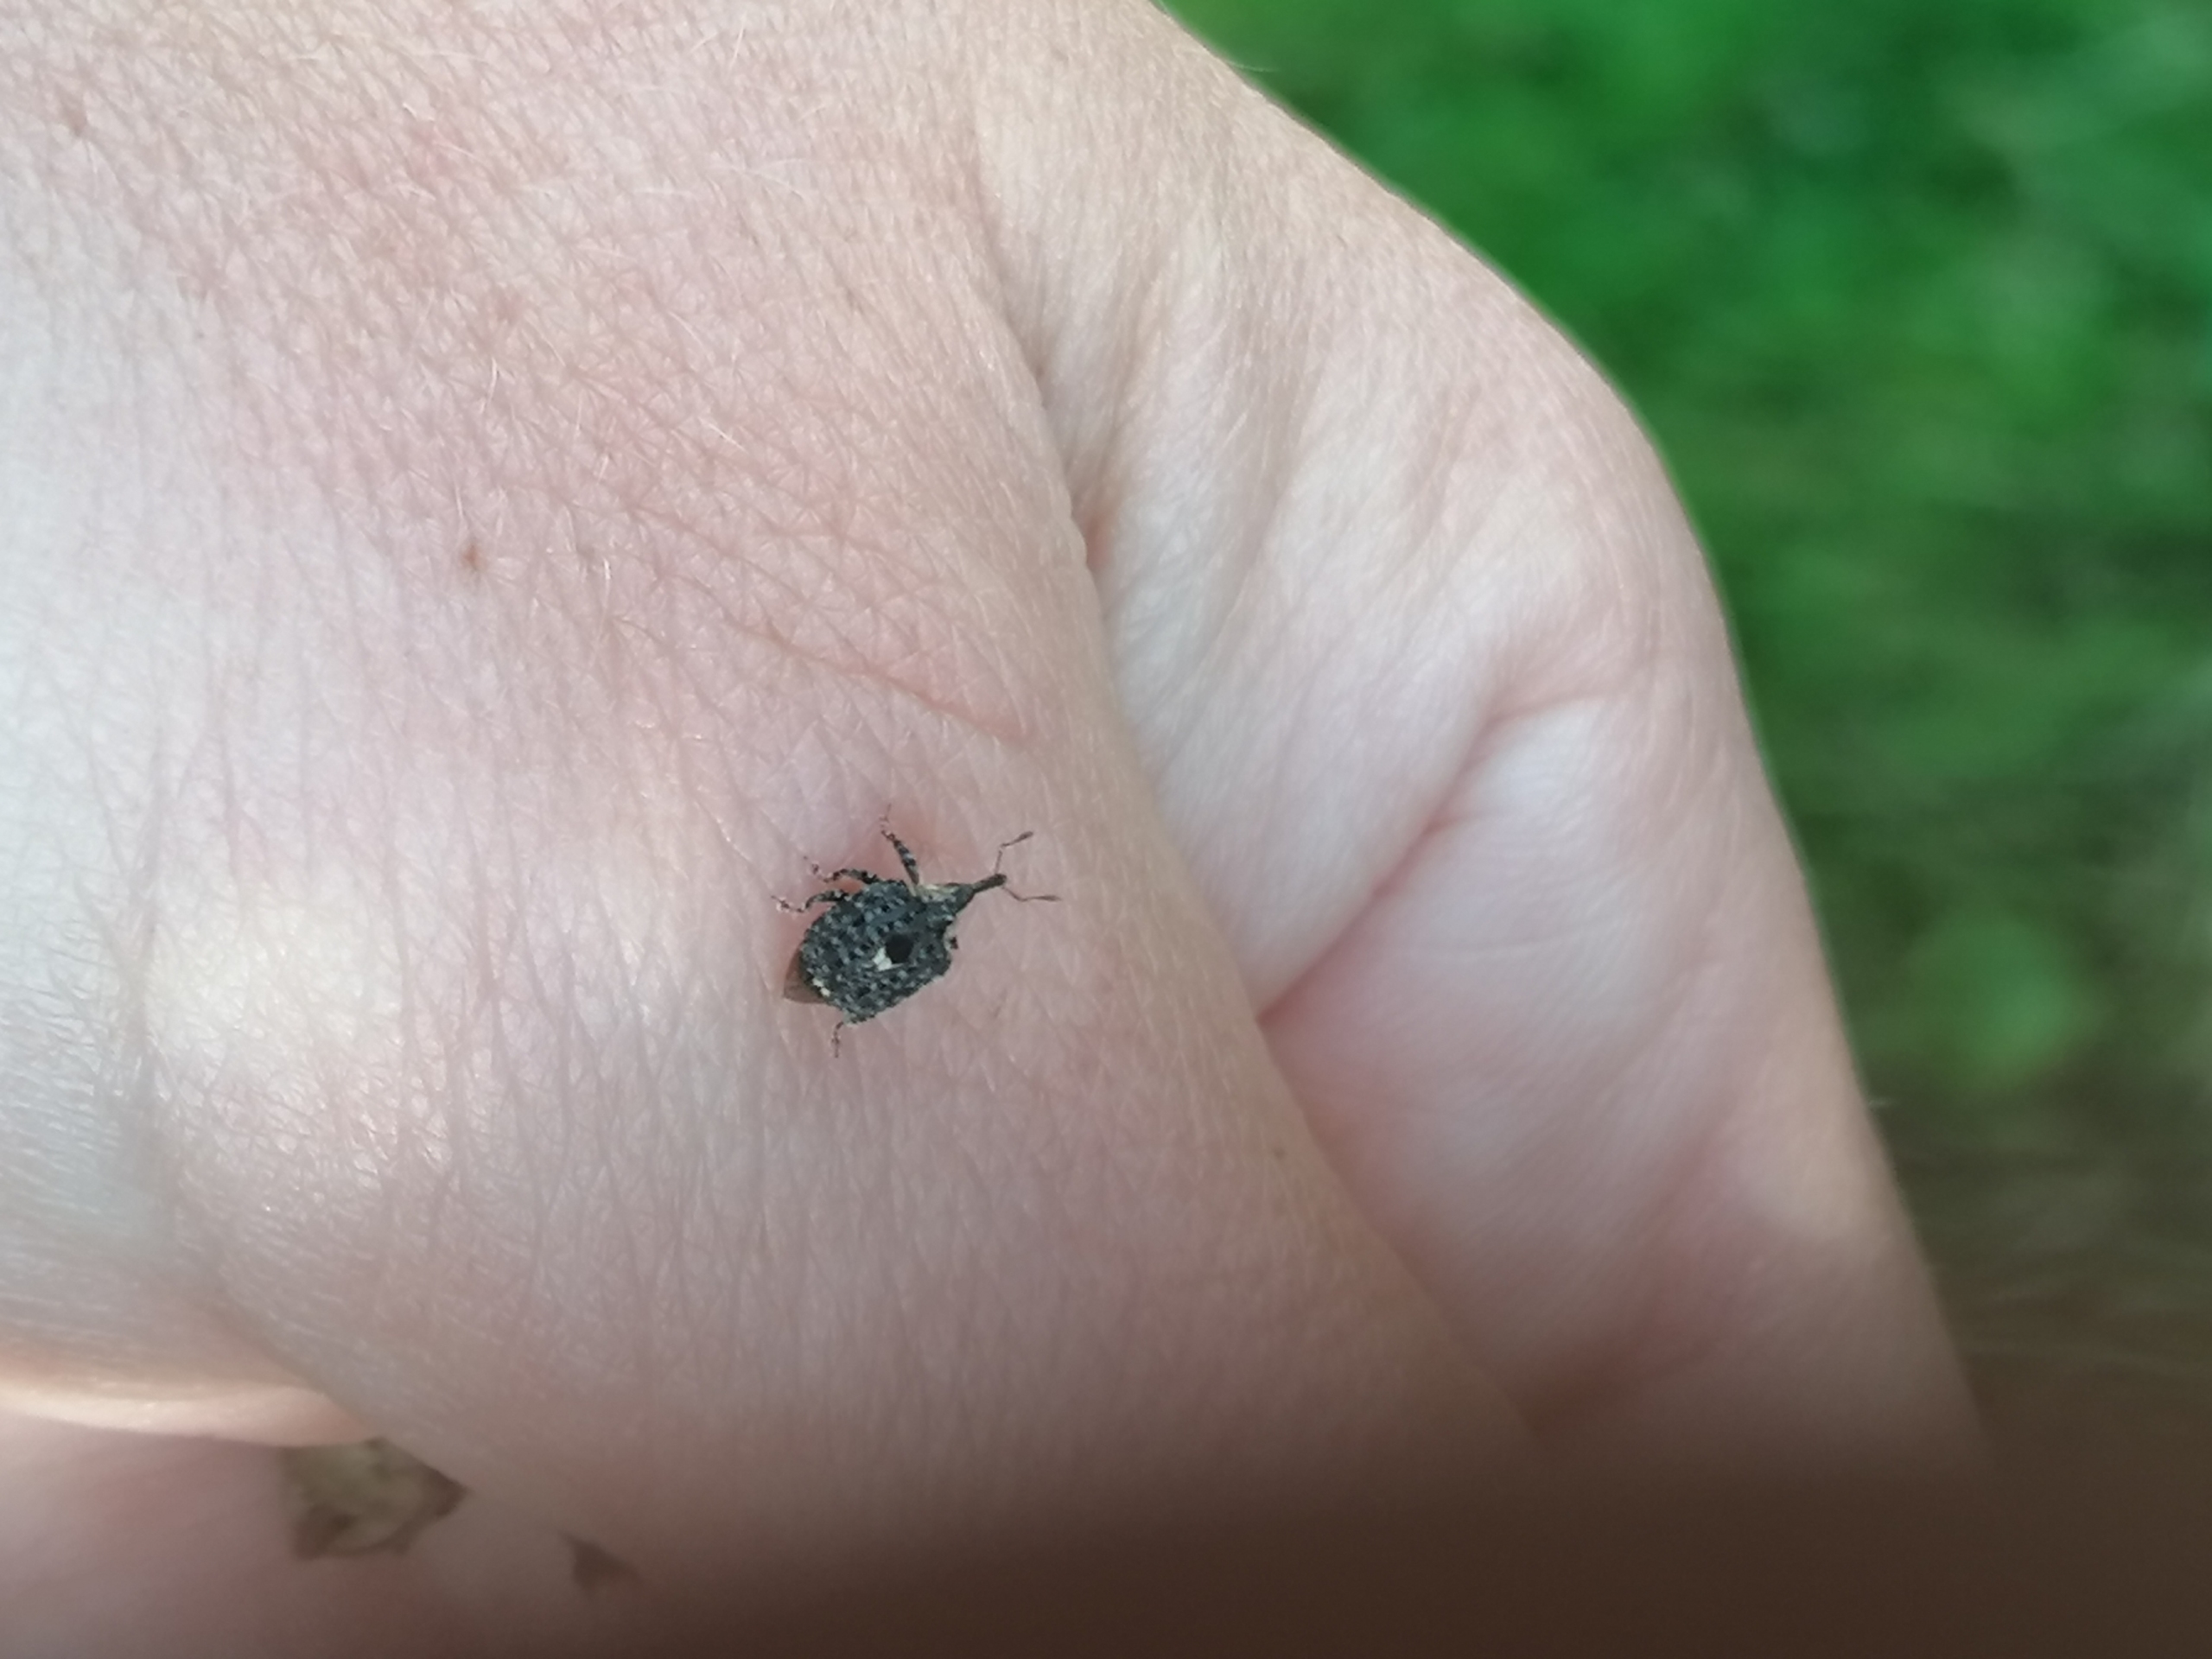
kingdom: Animalia
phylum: Arthropoda
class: Insecta
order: Coleoptera
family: Curculionidae
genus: Cionus
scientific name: Cionus tuberculosus
